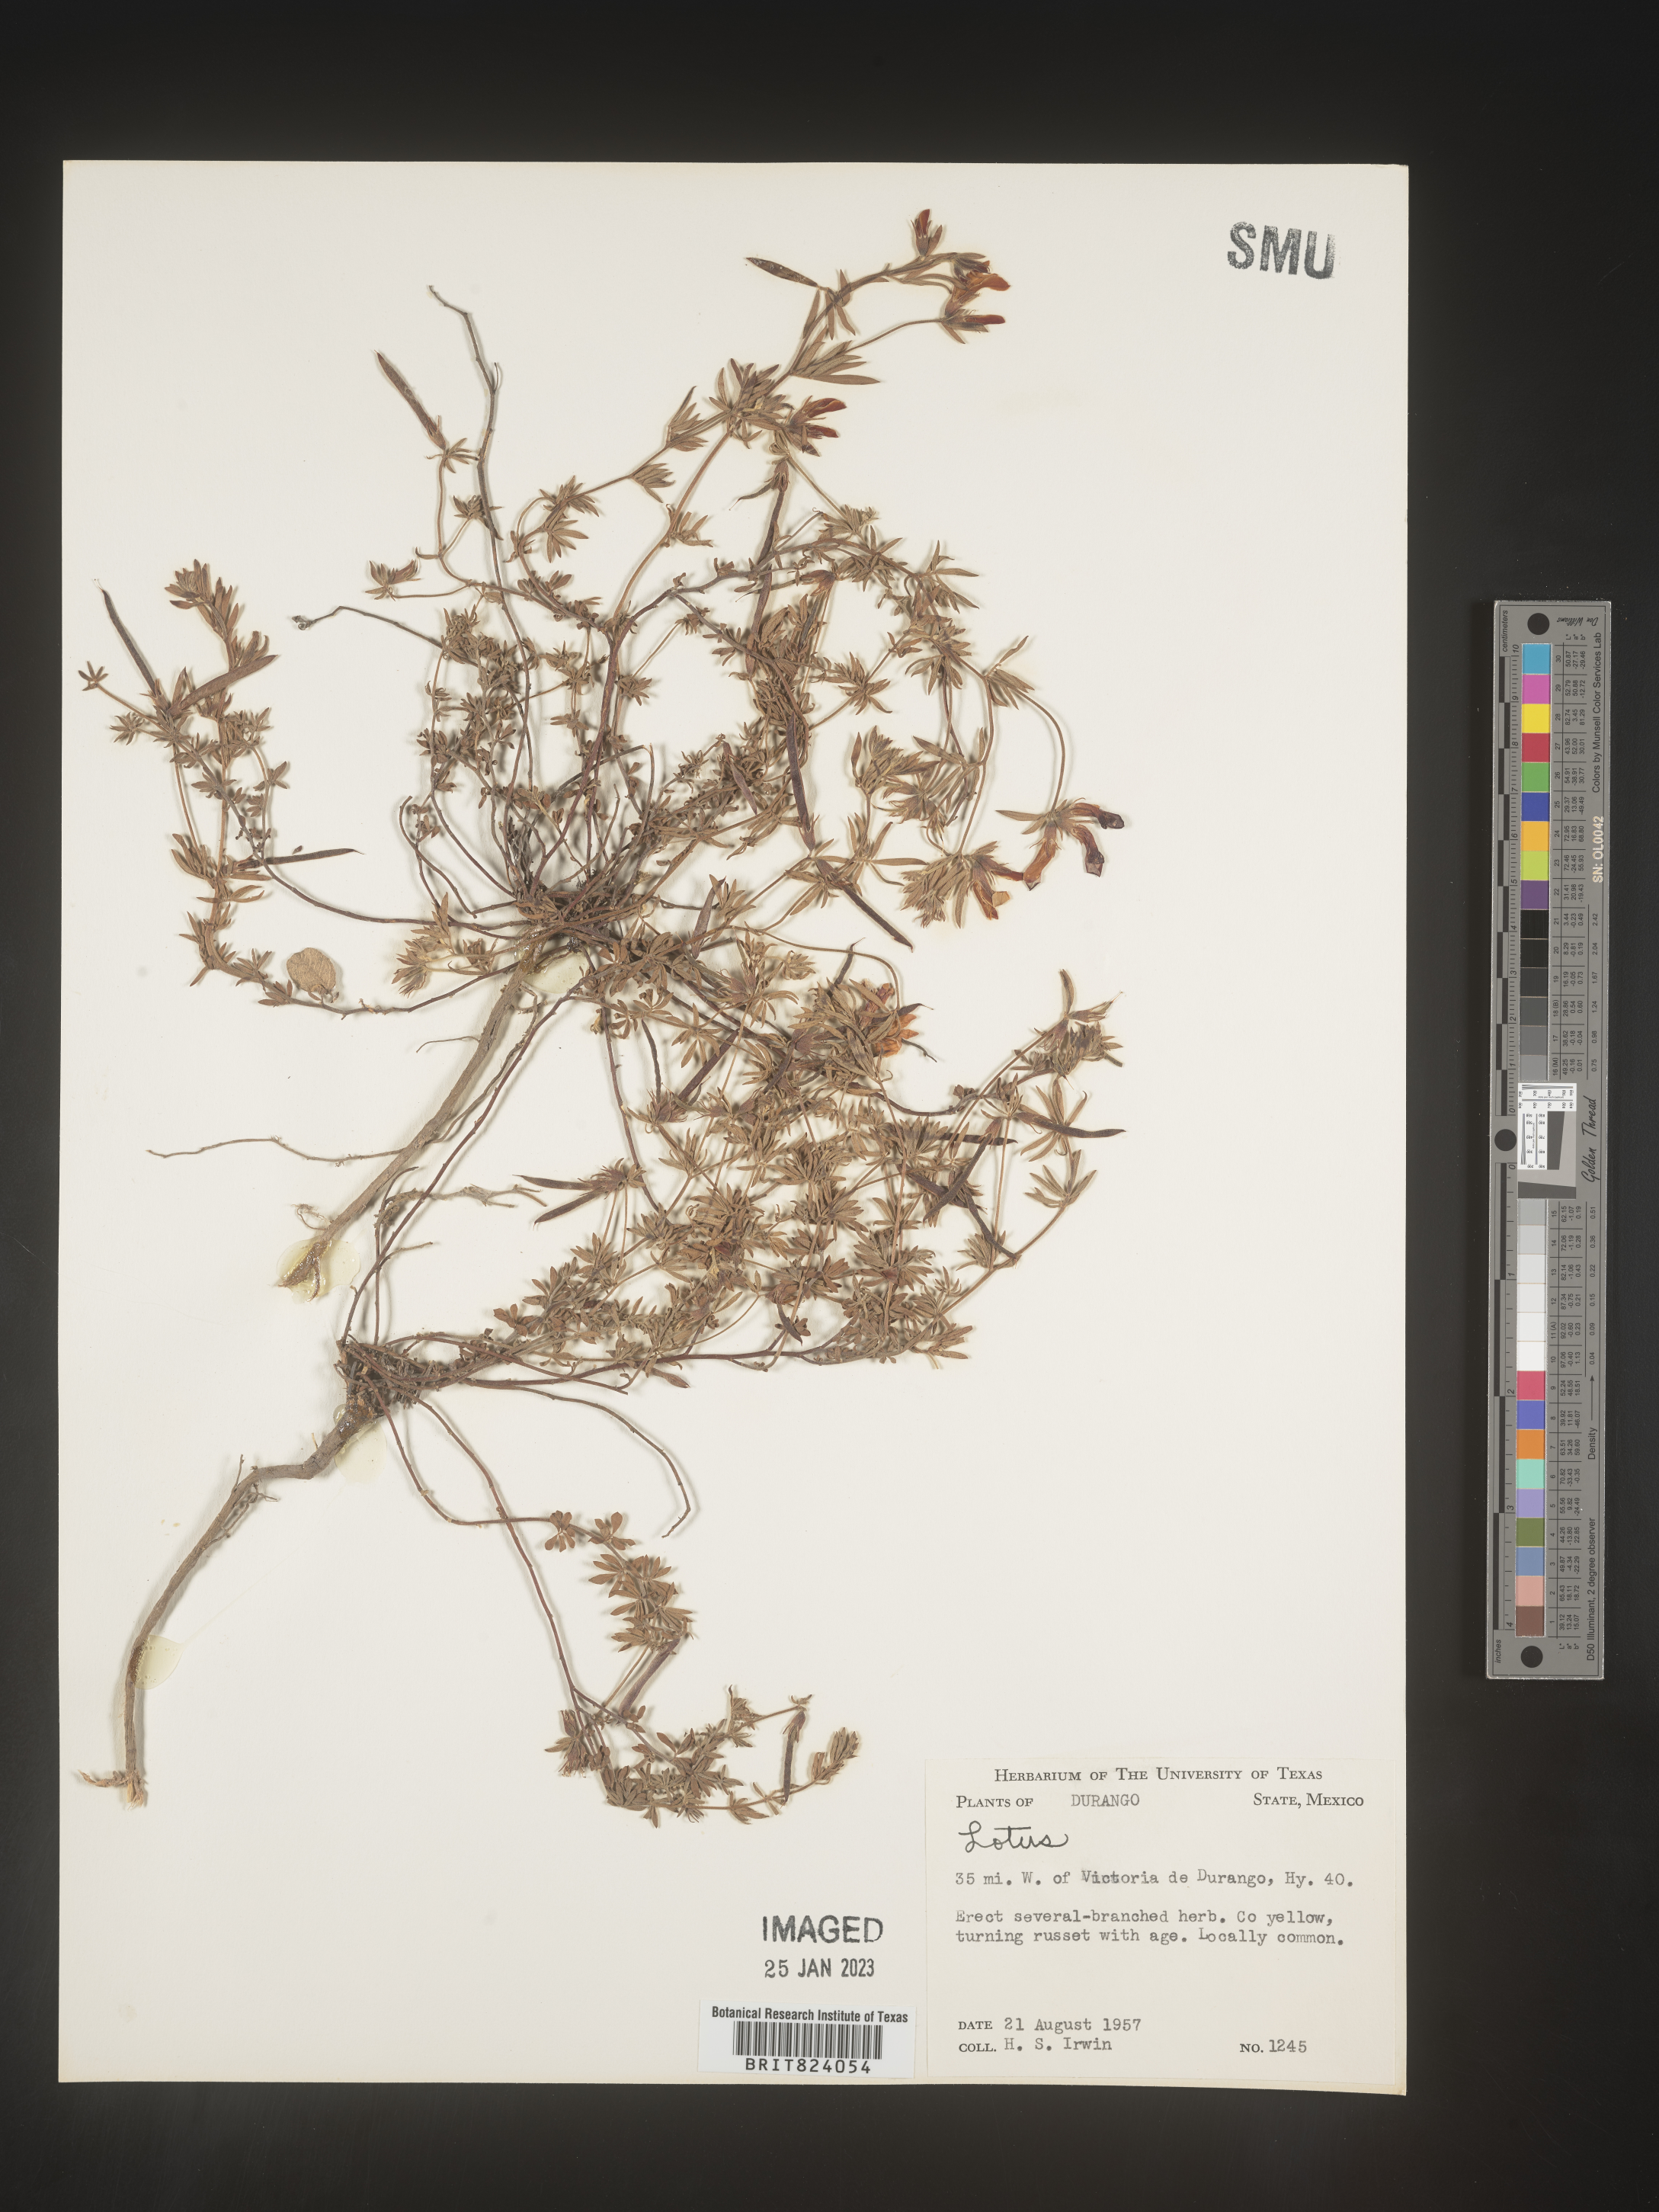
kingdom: Plantae
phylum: Tracheophyta
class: Magnoliopsida
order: Fabales
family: Fabaceae
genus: Lotus
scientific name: Lotus
